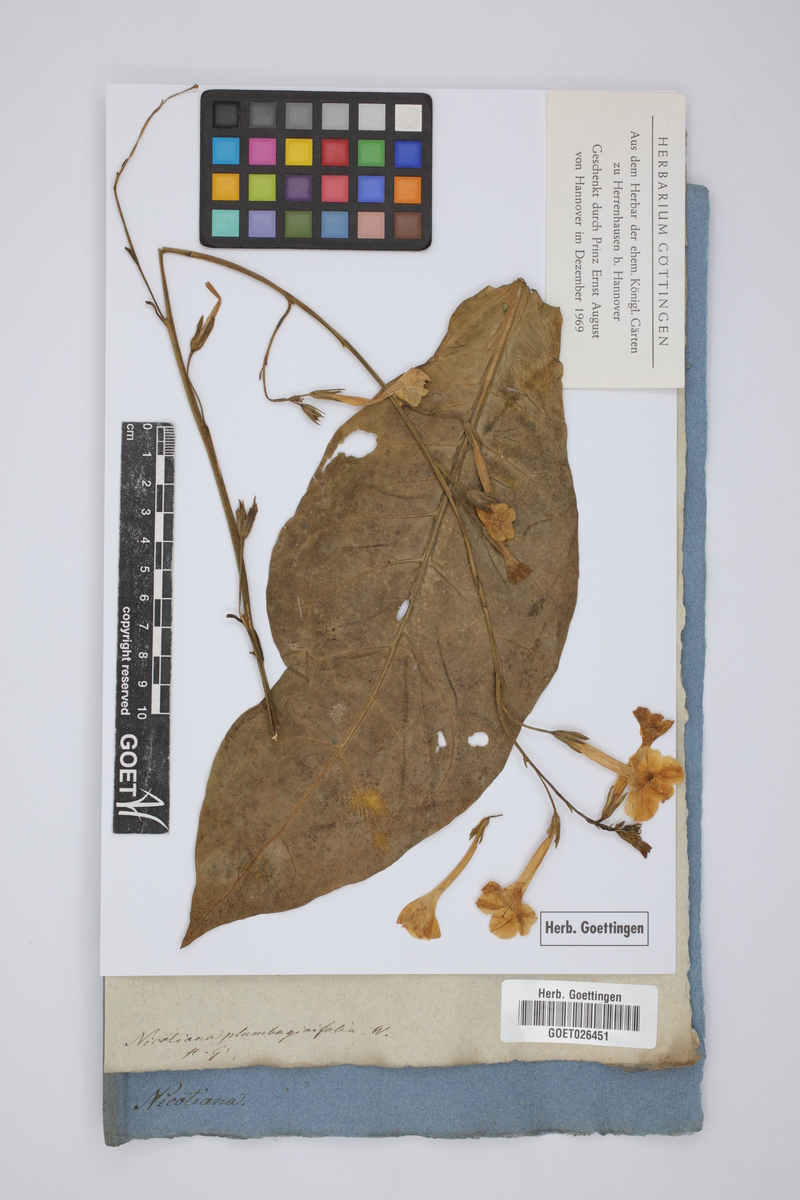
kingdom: Plantae
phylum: Tracheophyta
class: Magnoliopsida
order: Solanales
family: Solanaceae
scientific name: Solanaceae
